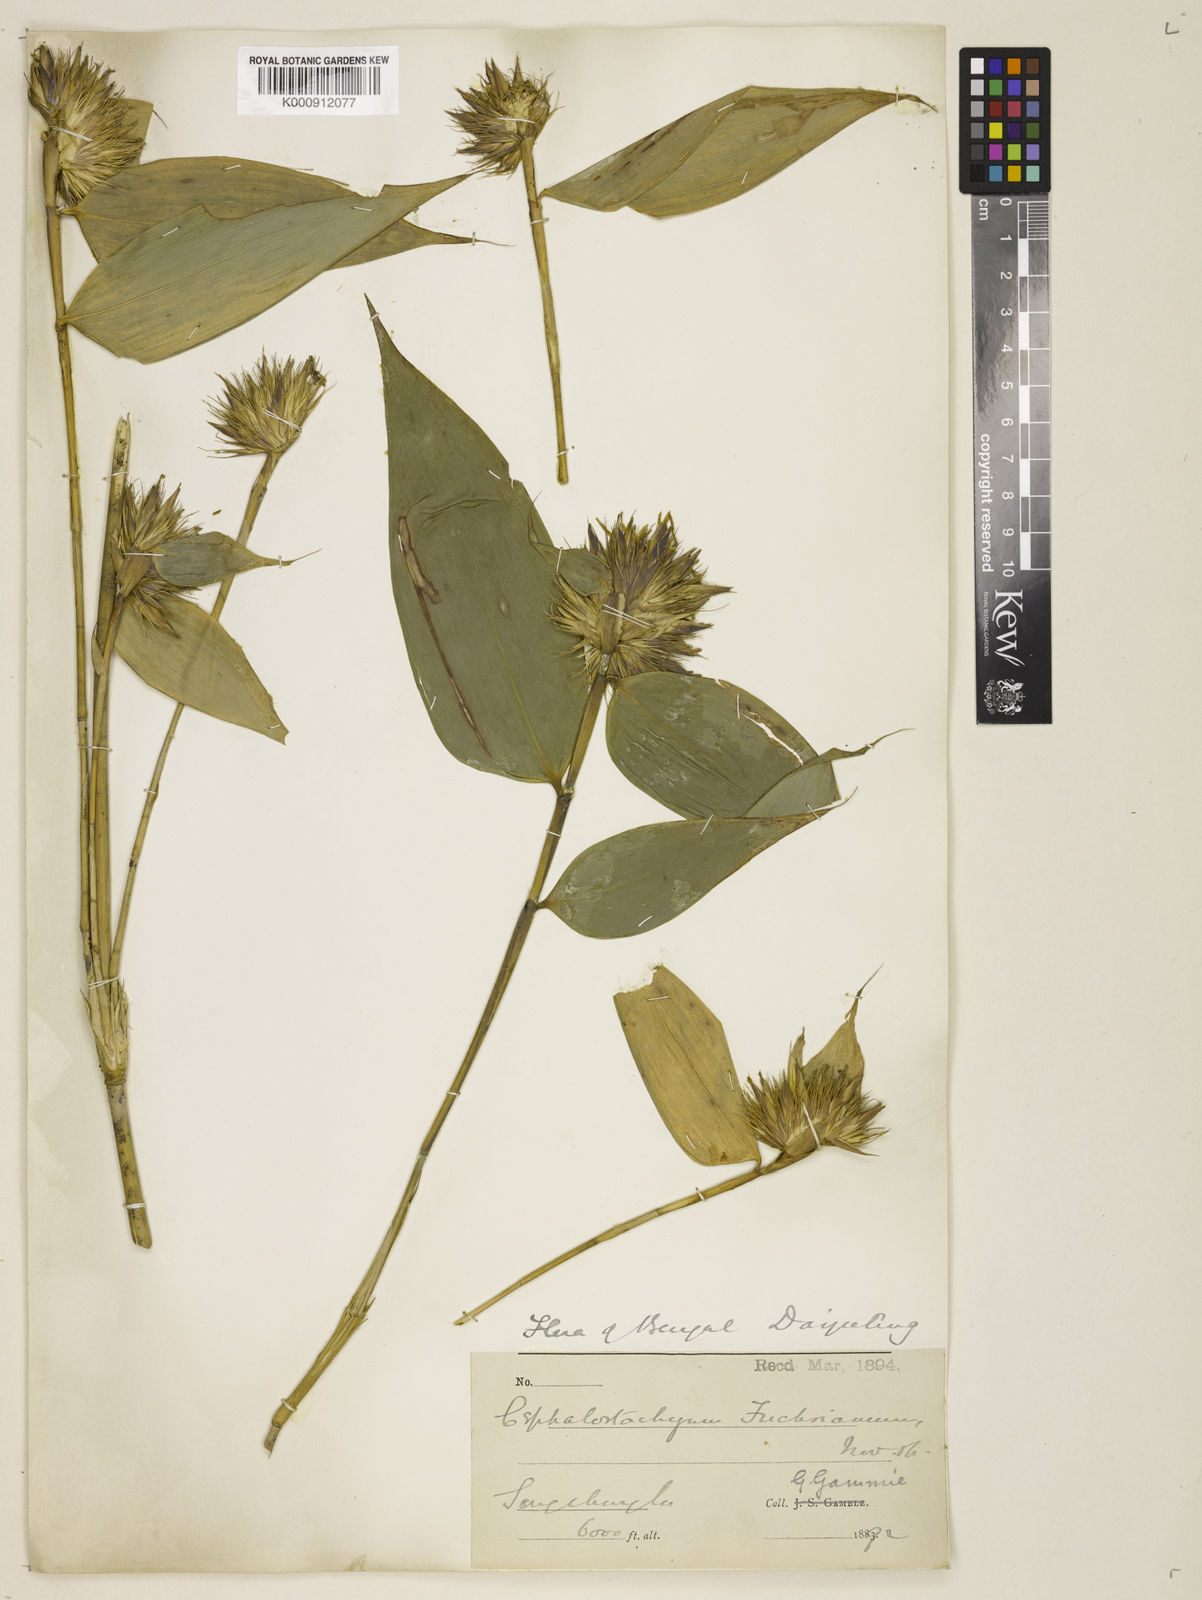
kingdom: Plantae
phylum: Tracheophyta
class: Liliopsida
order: Poales
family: Poaceae
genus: Cephalostachyum
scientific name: Cephalostachyum latifolium
